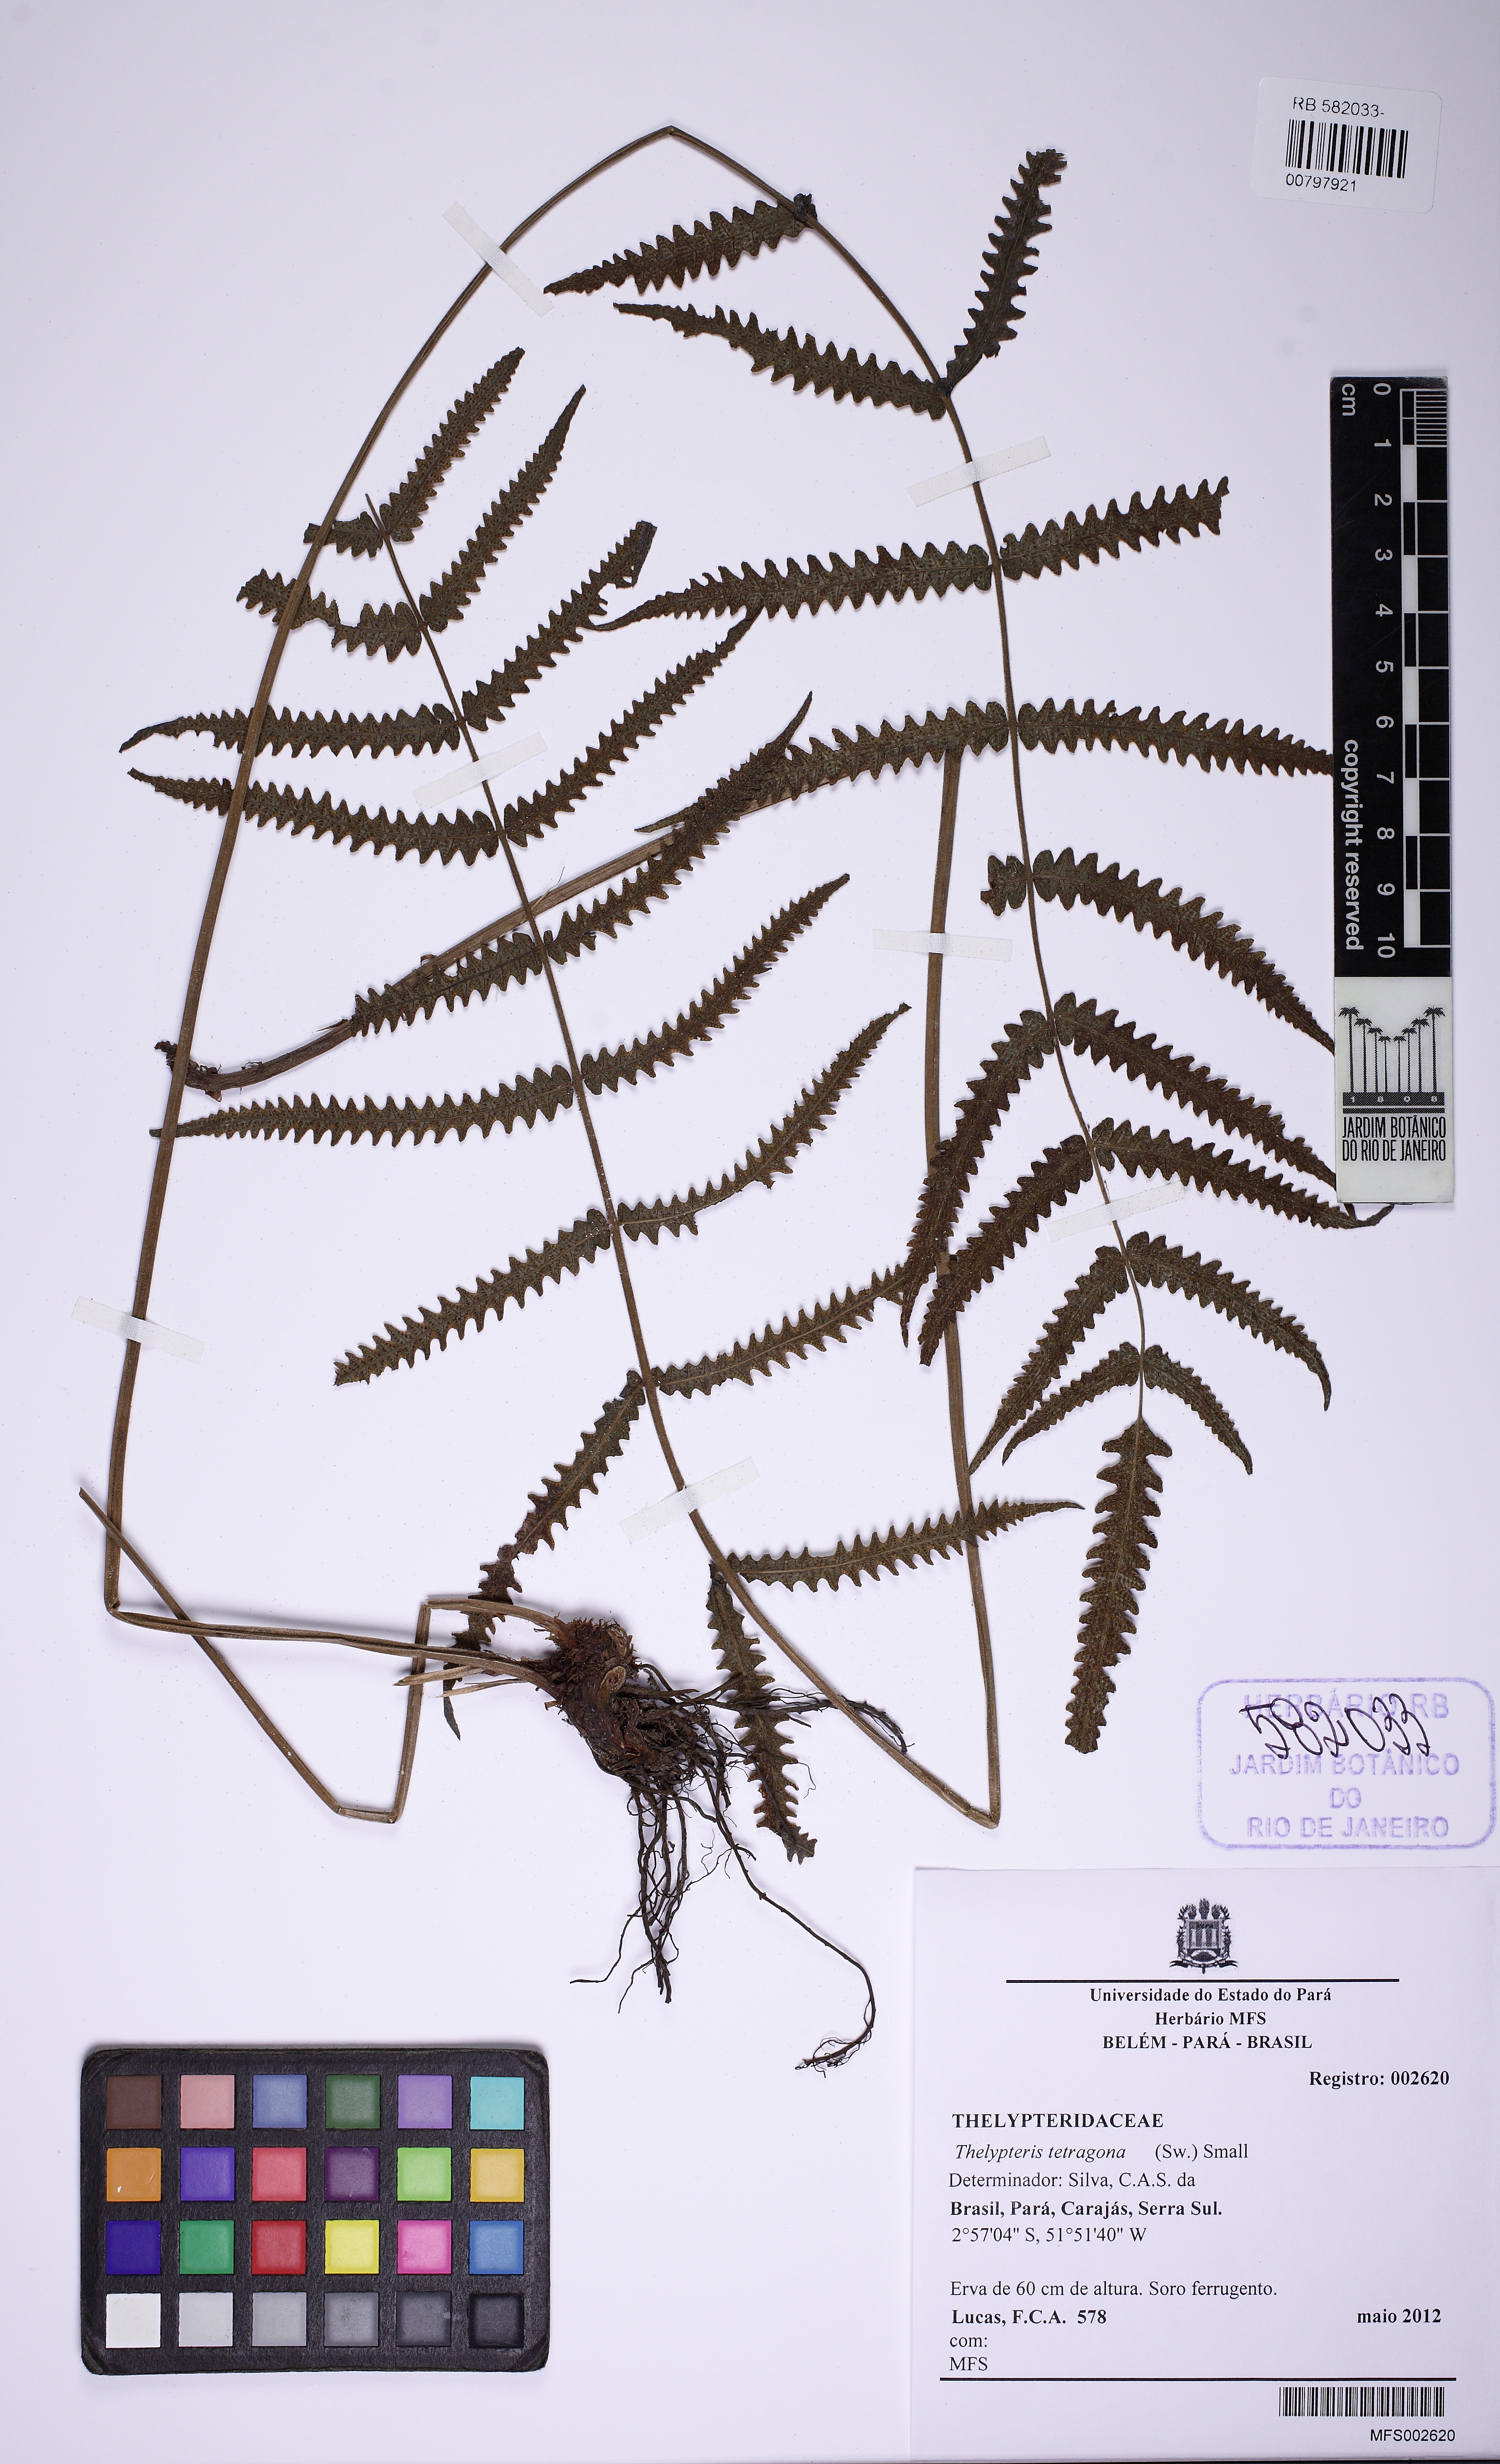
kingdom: Plantae
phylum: Tracheophyta
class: Polypodiopsida
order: Polypodiales
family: Thelypteridaceae
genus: Goniopteris
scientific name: Goniopteris tetragona
